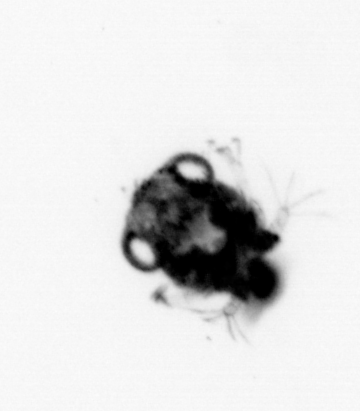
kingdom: Animalia
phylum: Arthropoda
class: Malacostraca
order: Decapoda
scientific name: Decapoda
